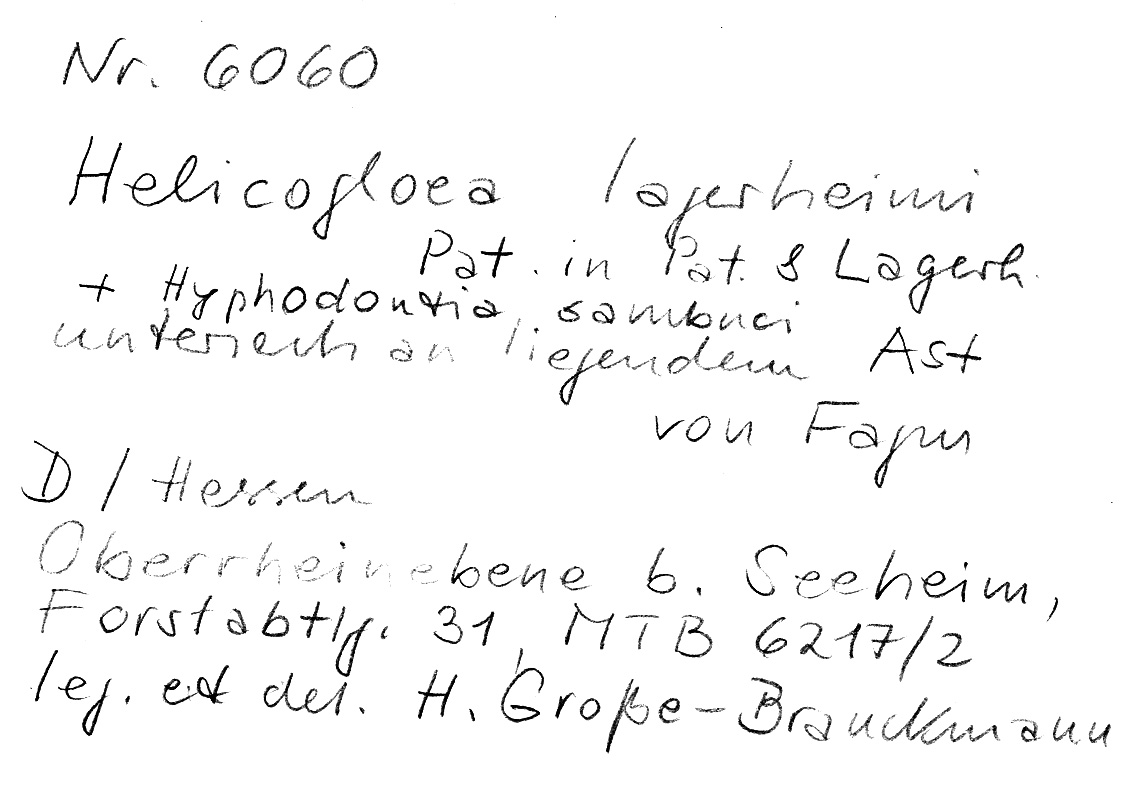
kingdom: Fungi
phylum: Basidiomycota
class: Atractiellomycetes
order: Atractiellales
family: Phleogenaceae
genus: Helicogloea
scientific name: Helicogloea lagerheimii
